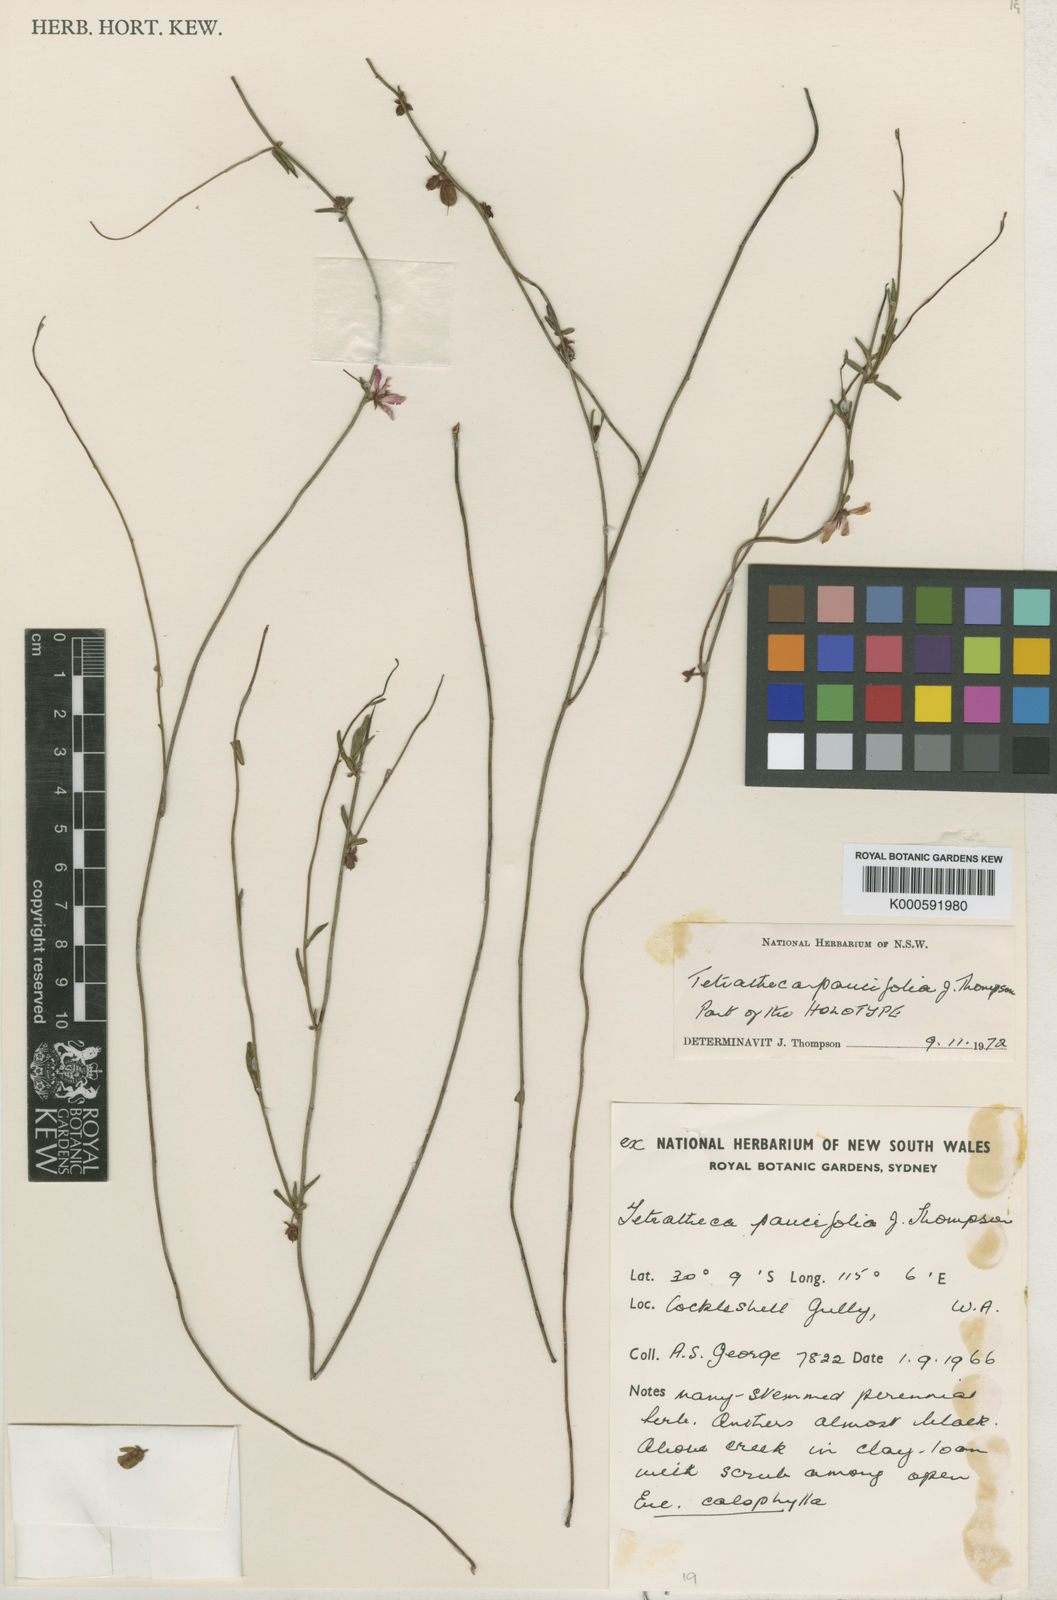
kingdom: Plantae
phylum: Tracheophyta
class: Magnoliopsida
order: Oxalidales
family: Elaeocarpaceae
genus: Tetratheca
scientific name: Tetratheca paucifolia
